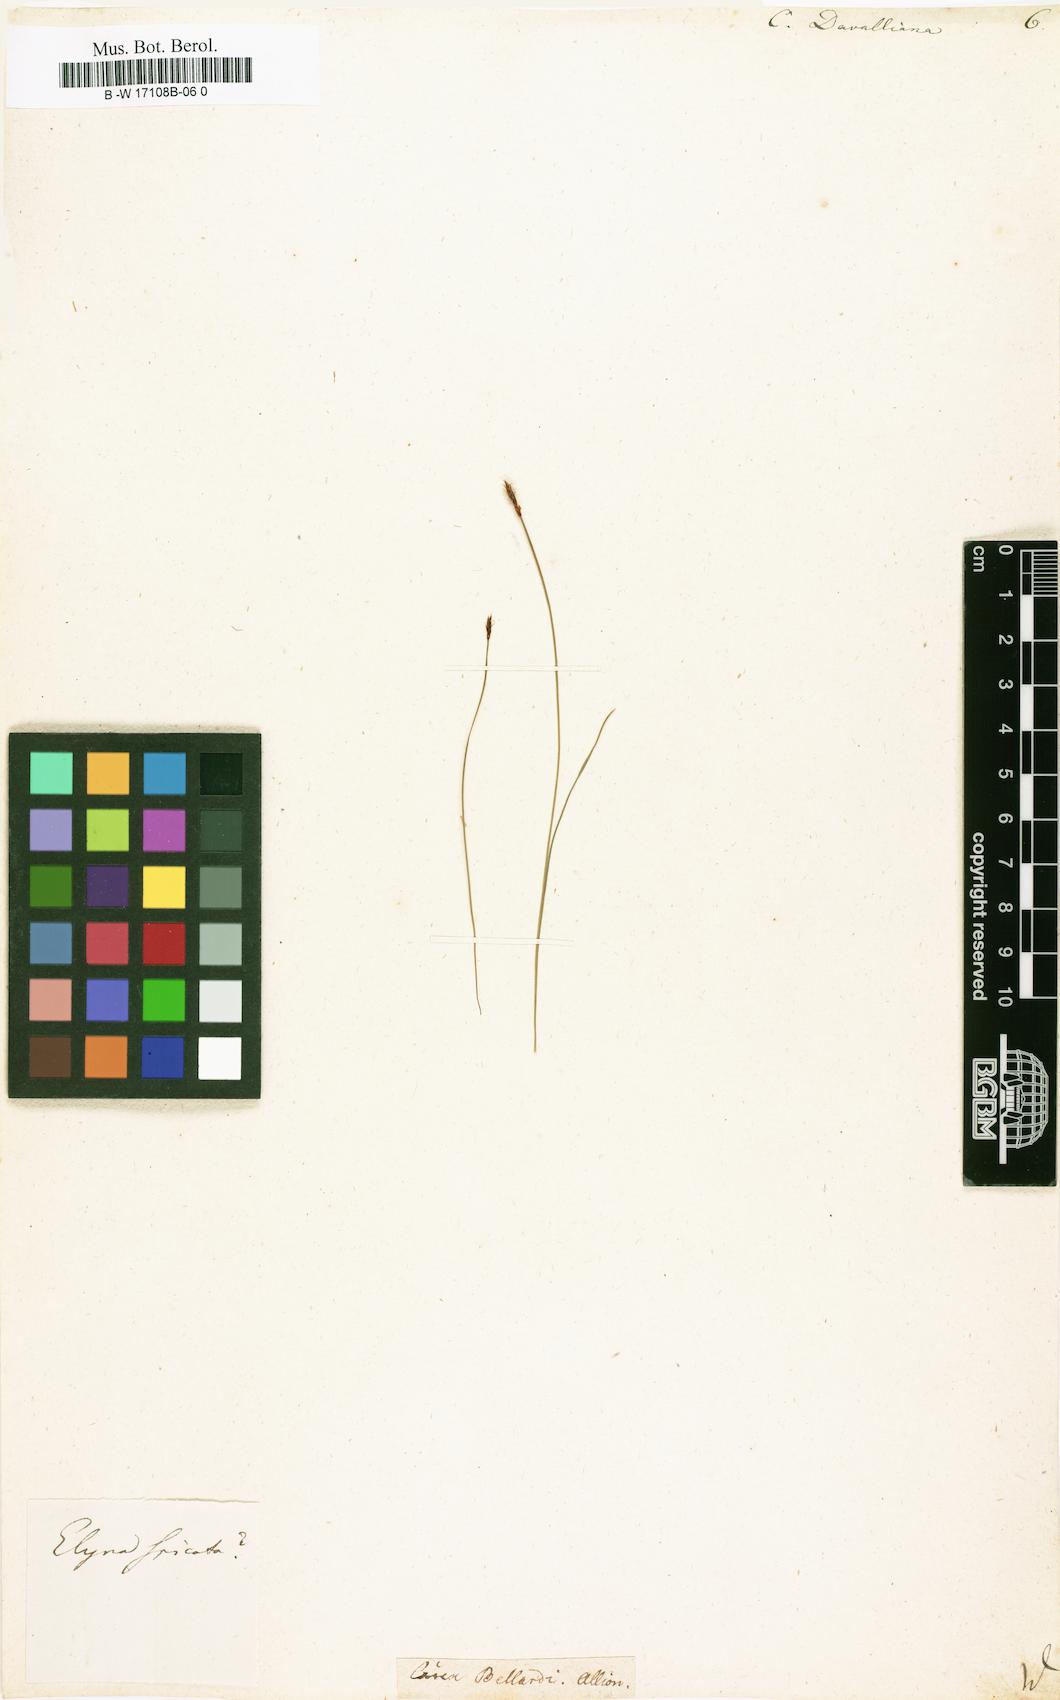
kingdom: Plantae
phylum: Tracheophyta
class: Liliopsida
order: Poales
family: Cyperaceae
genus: Carex
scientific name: Carex davalliana
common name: Davall's sedge
